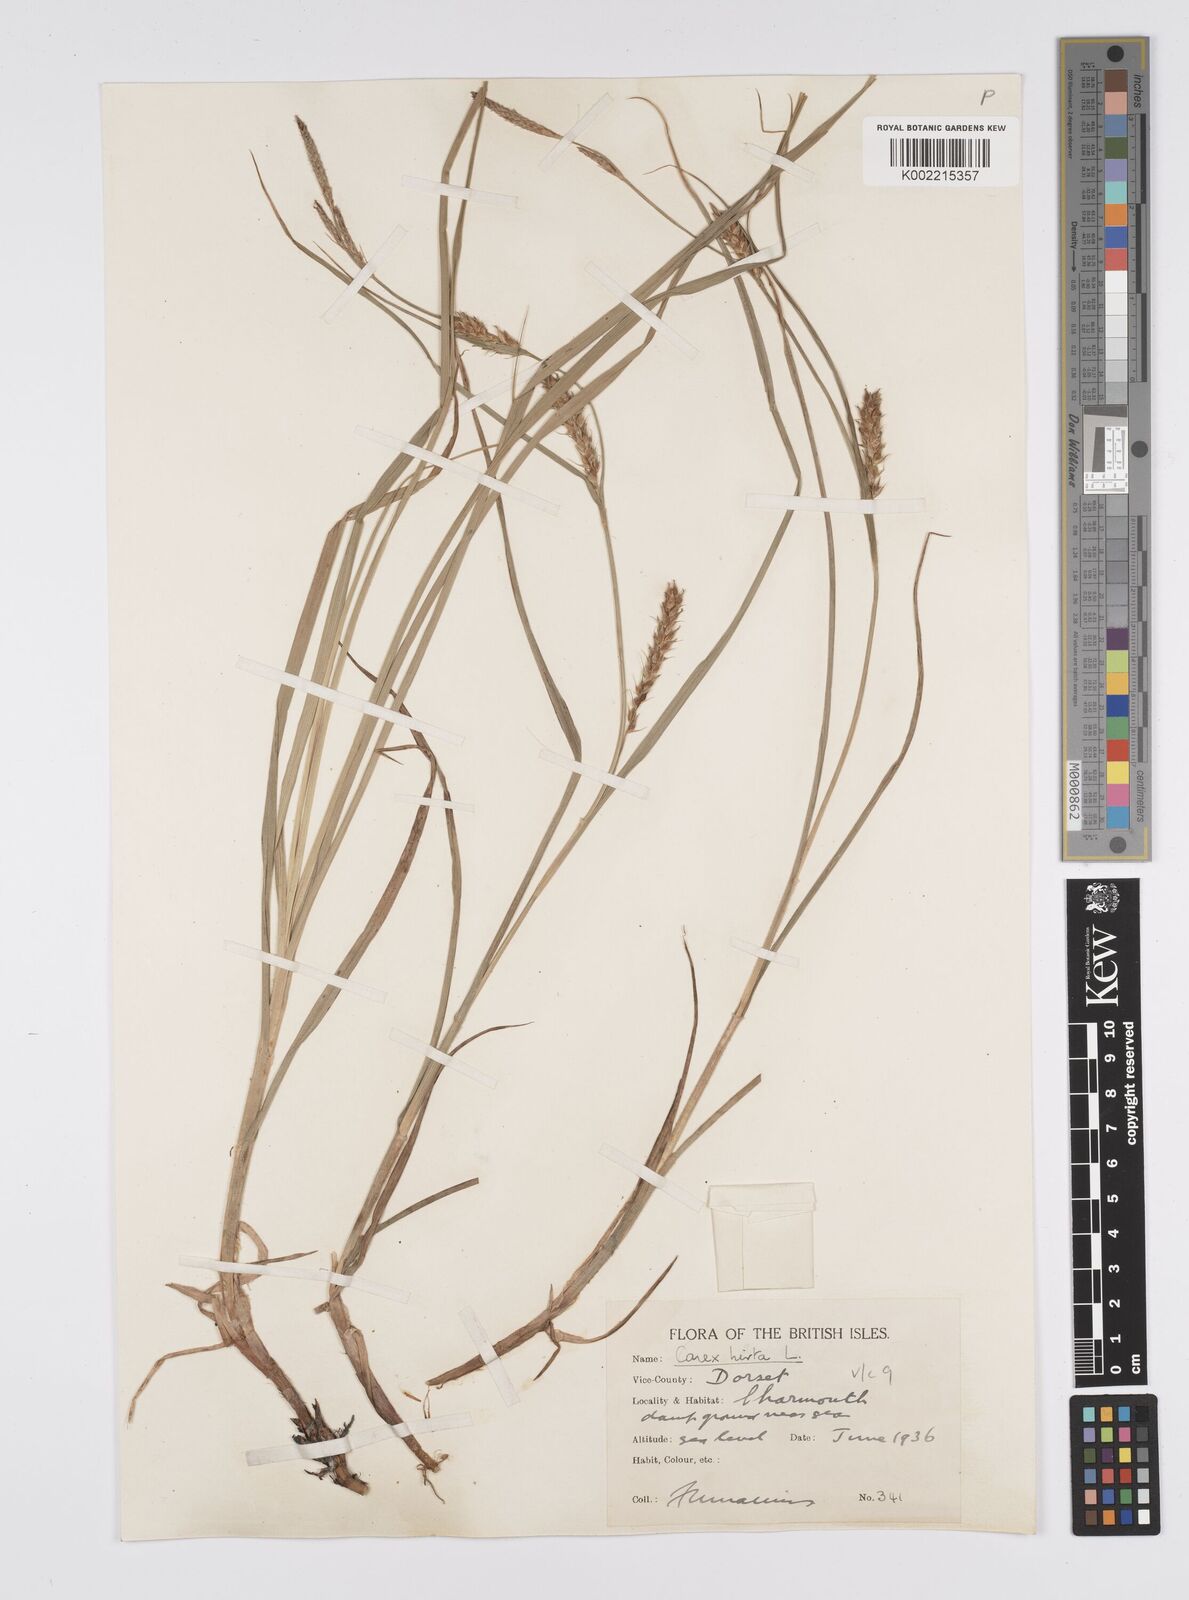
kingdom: Plantae
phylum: Tracheophyta
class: Liliopsida
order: Poales
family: Cyperaceae
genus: Carex
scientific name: Carex hirta
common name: Hairy sedge
